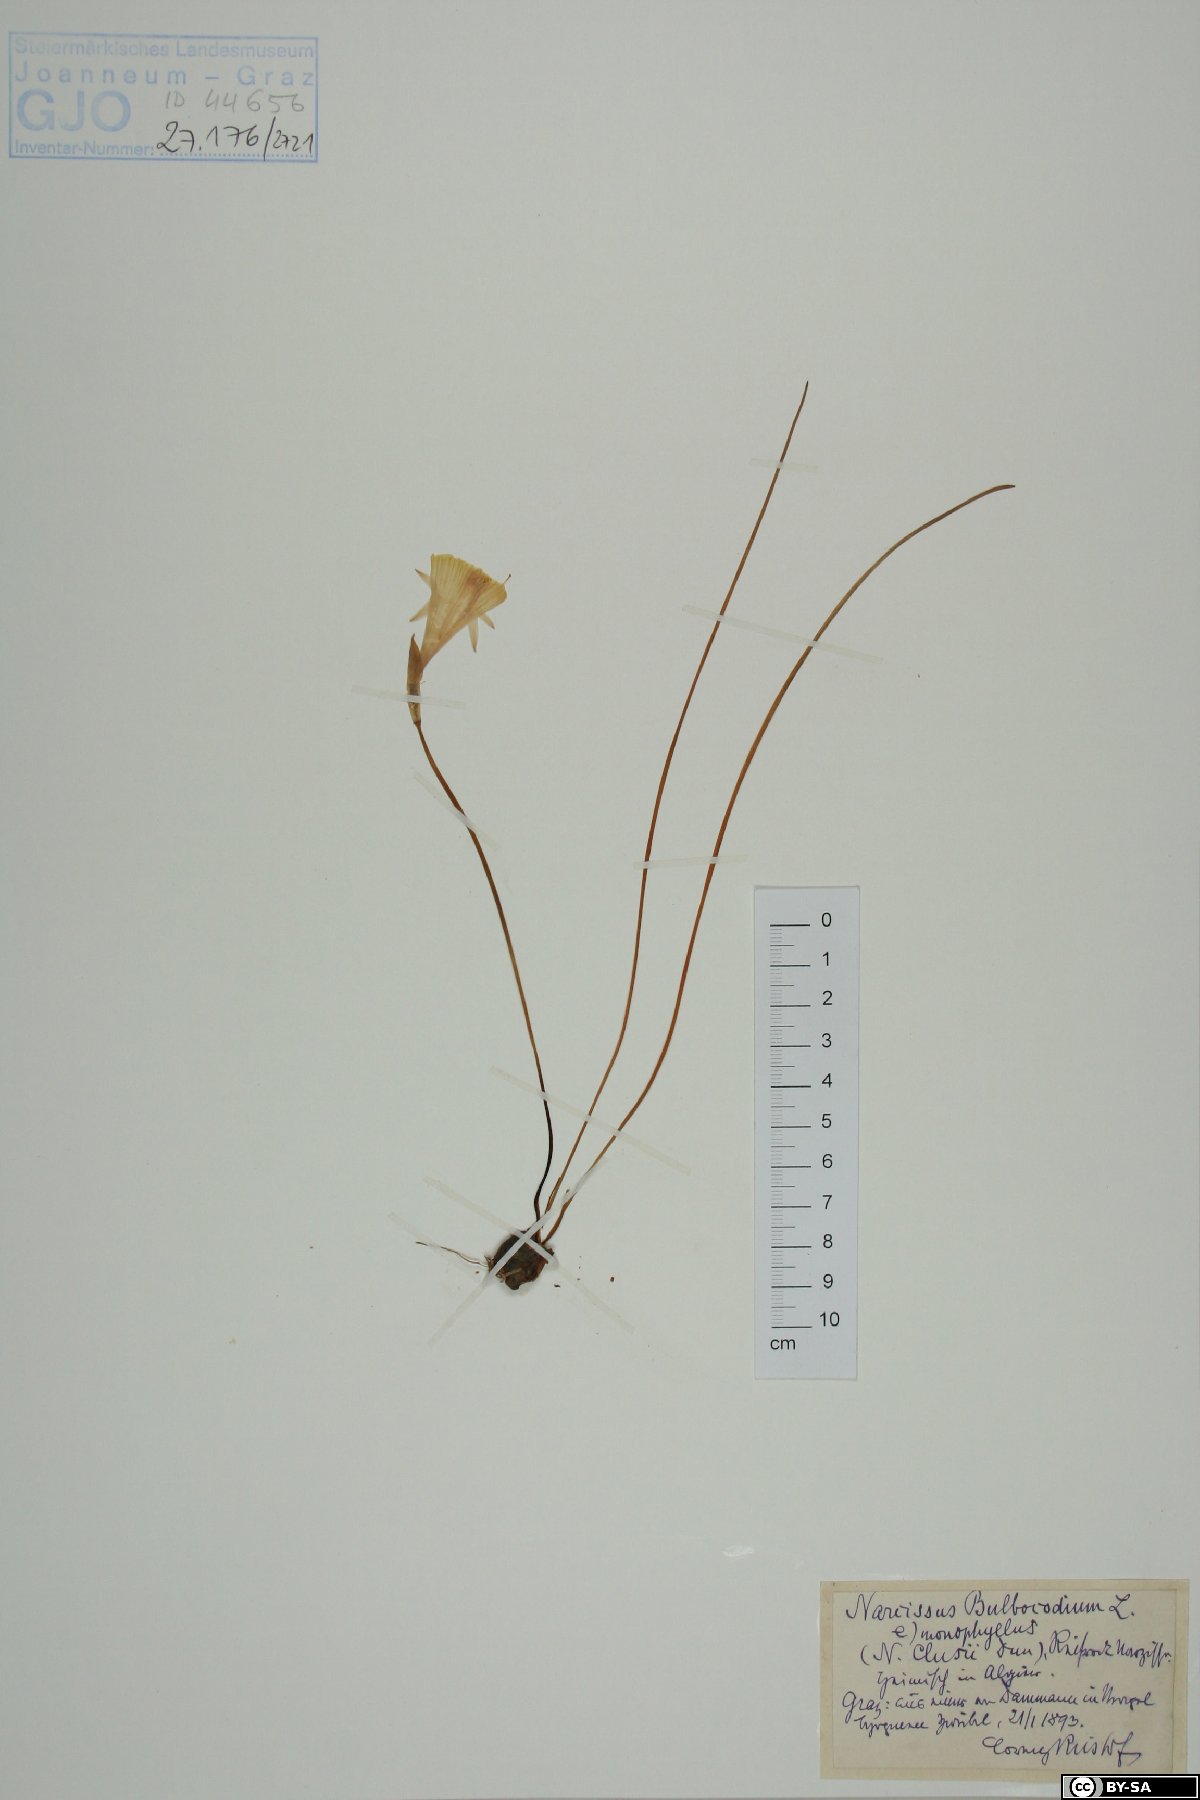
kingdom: Plantae
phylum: Tracheophyta
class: Liliopsida
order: Asparagales
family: Amaryllidaceae
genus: Narcissus
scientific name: Narcissus cantabricus
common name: White hoop petticoat daffodil
